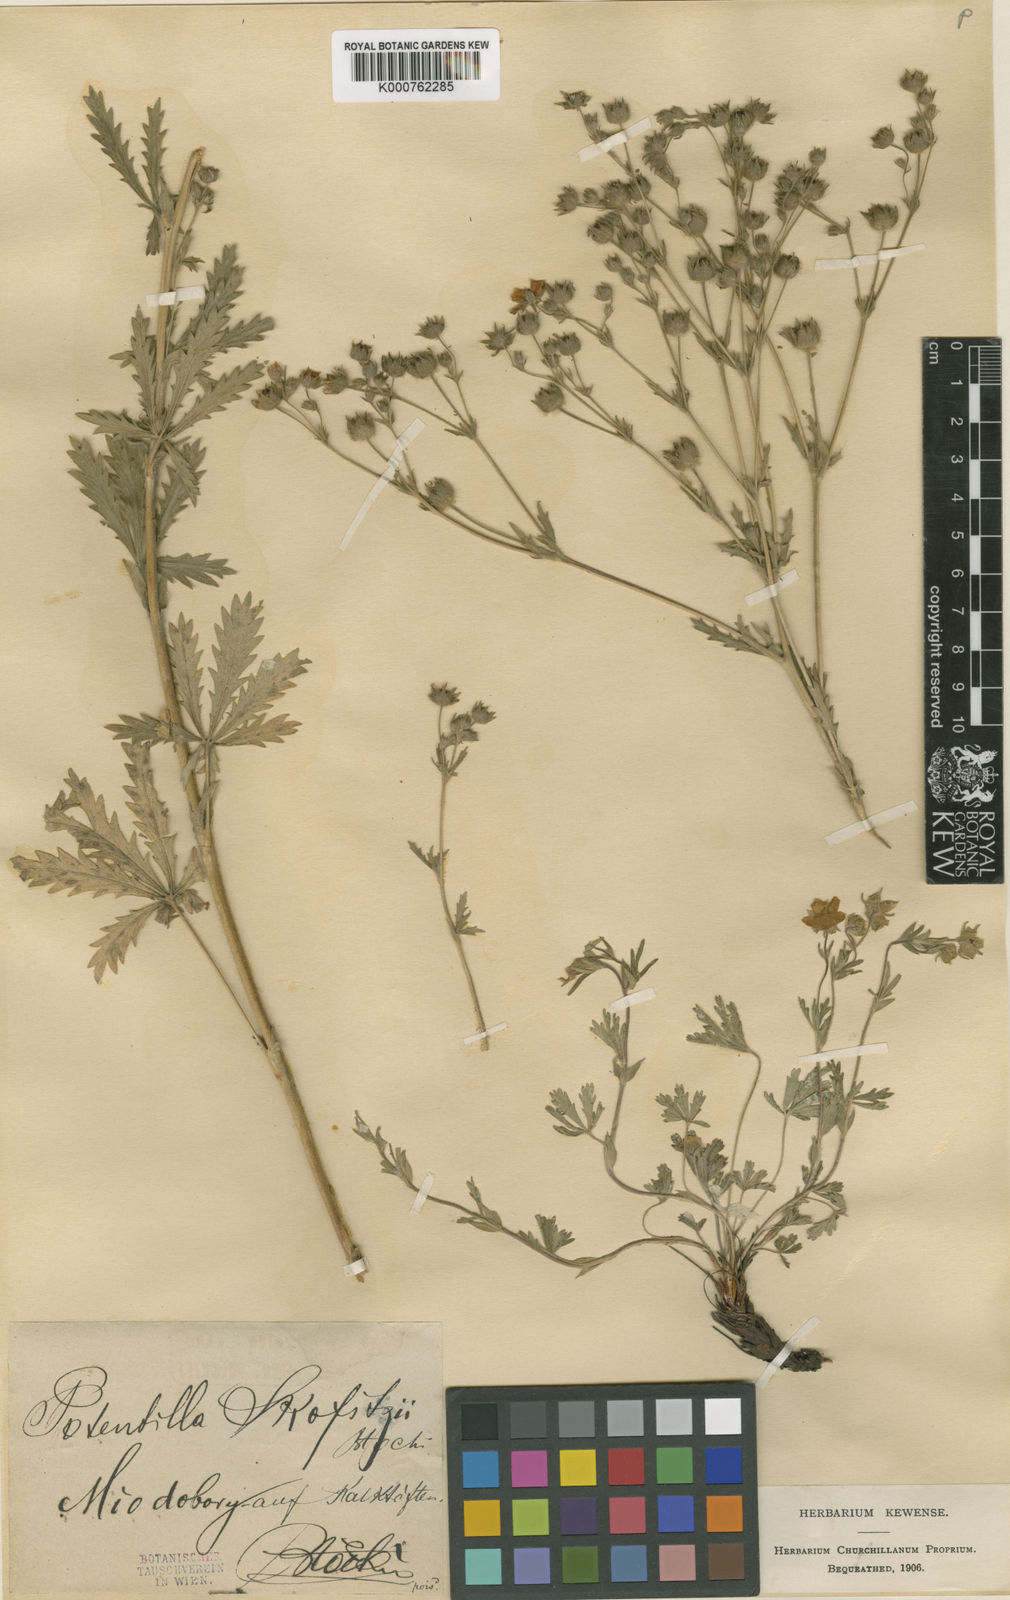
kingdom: Plantae
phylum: Tracheophyta
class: Magnoliopsida
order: Rosales
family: Rosaceae
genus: Potentilla
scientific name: Potentilla recta
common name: Sulphur cinquefoil
